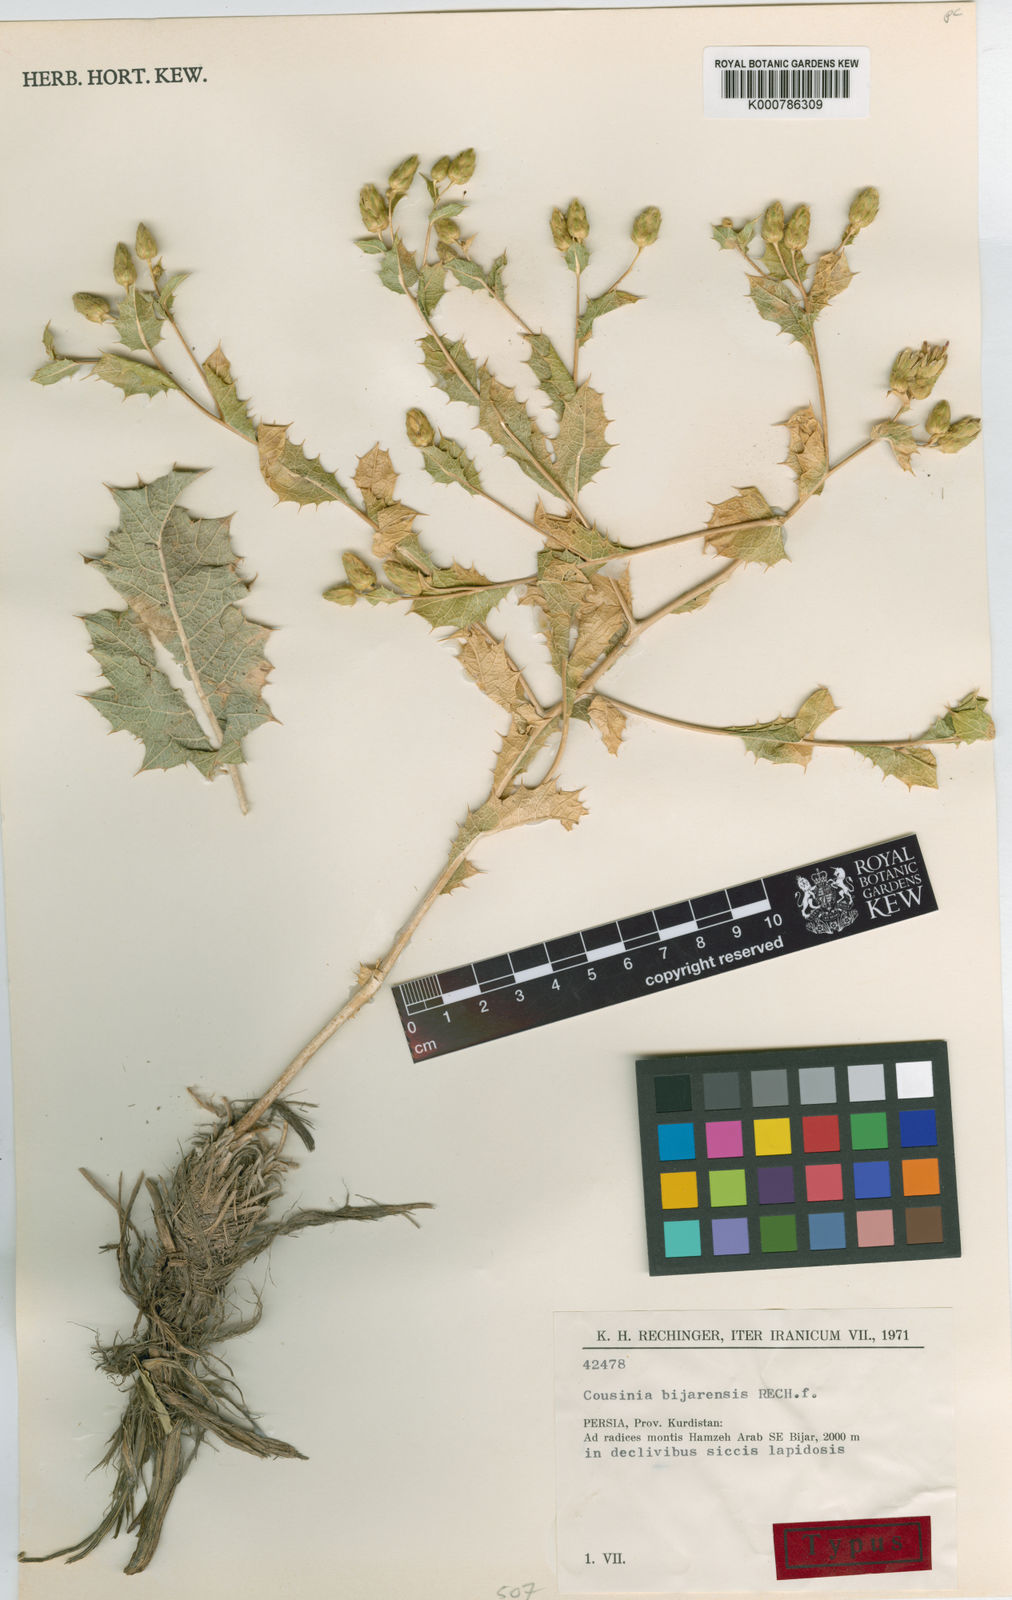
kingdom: Plantae
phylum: Tracheophyta
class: Magnoliopsida
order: Asterales
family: Asteraceae
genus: Cousinia
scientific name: Cousinia bijarensis
